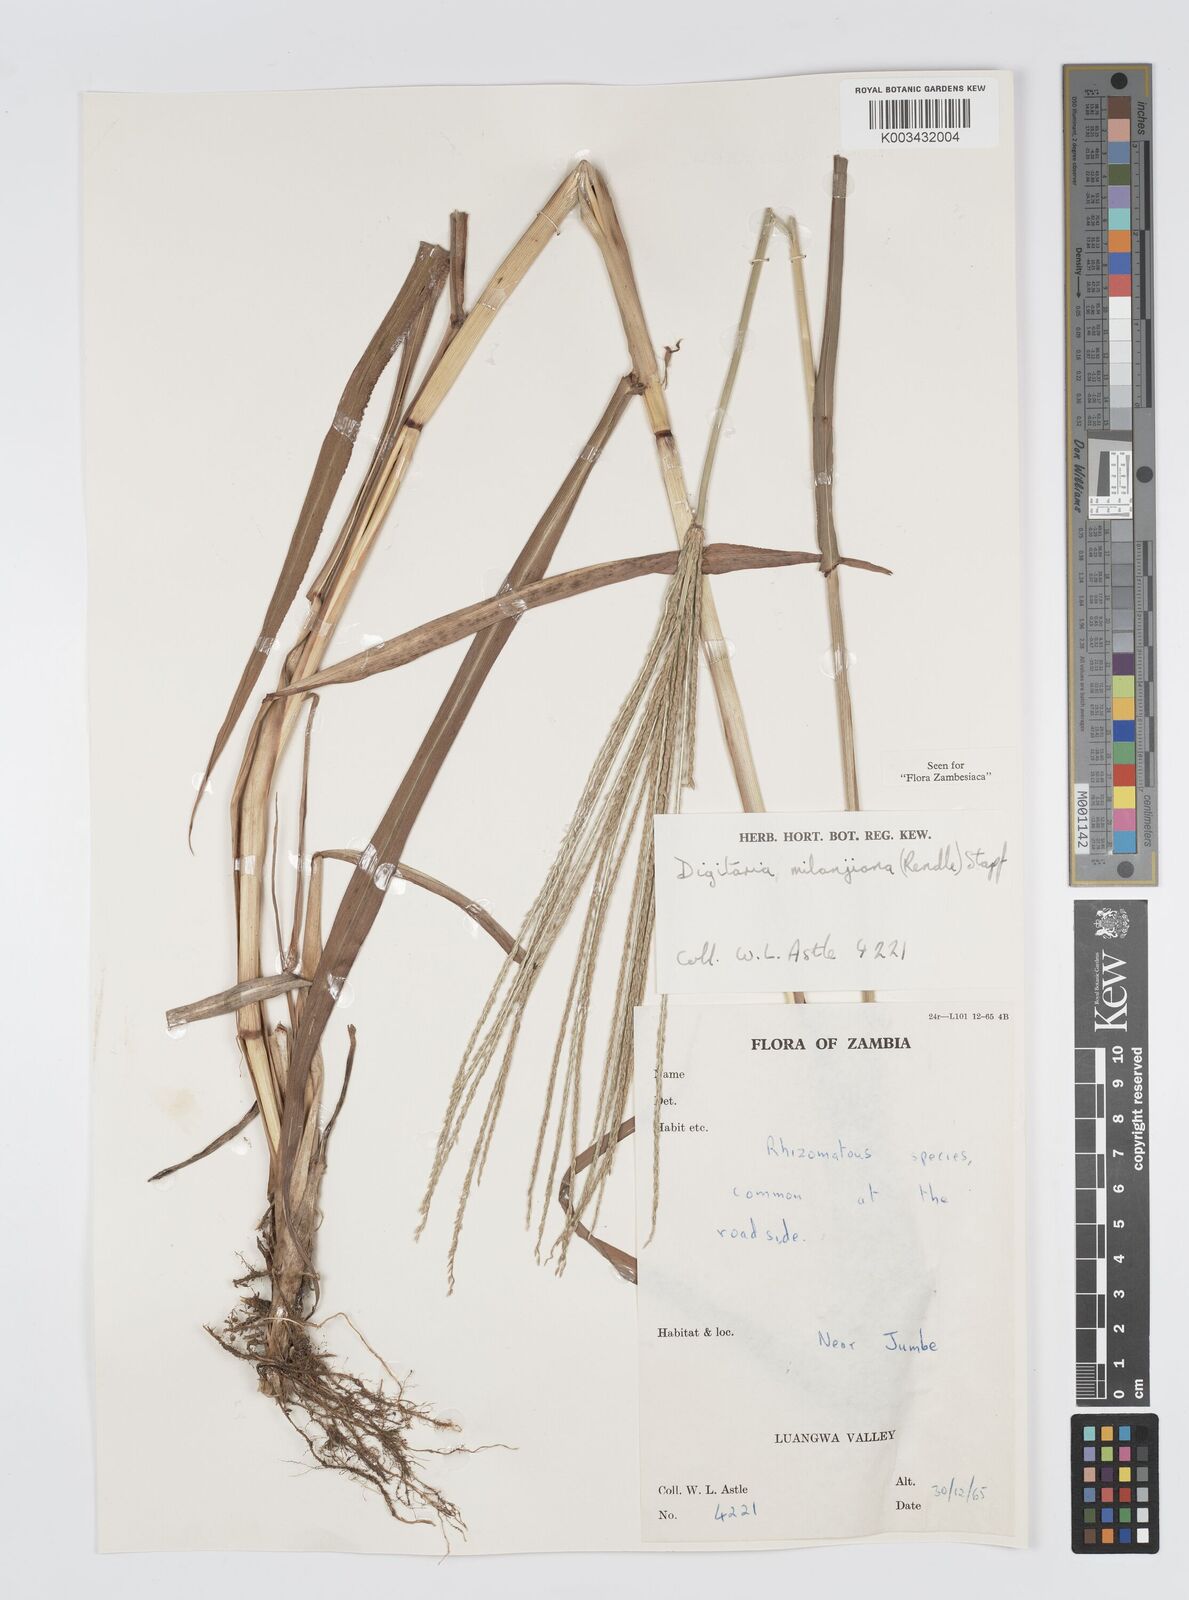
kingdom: Plantae
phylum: Tracheophyta
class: Liliopsida
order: Poales
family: Poaceae
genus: Digitaria
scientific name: Digitaria milanjiana
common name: Madagascar crabgrass
